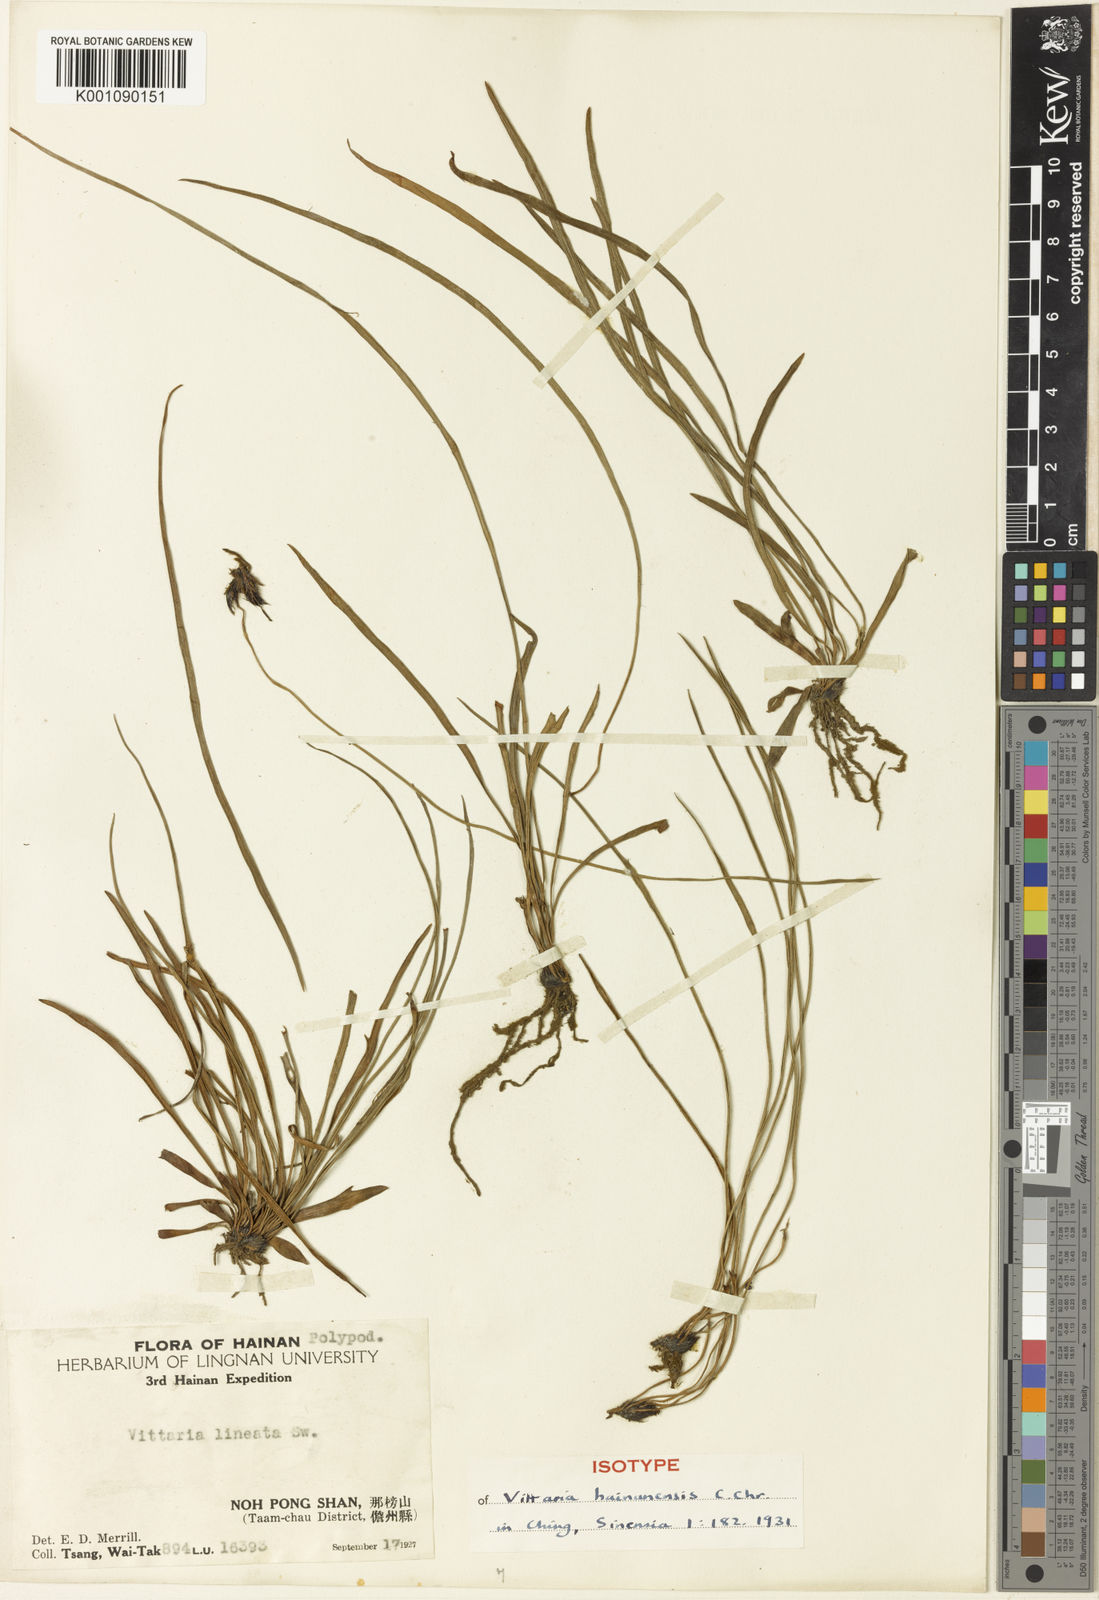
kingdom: Plantae
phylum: Tracheophyta
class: Polypodiopsida
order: Polypodiales
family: Pteridaceae
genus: Vittaria
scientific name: Vittaria
